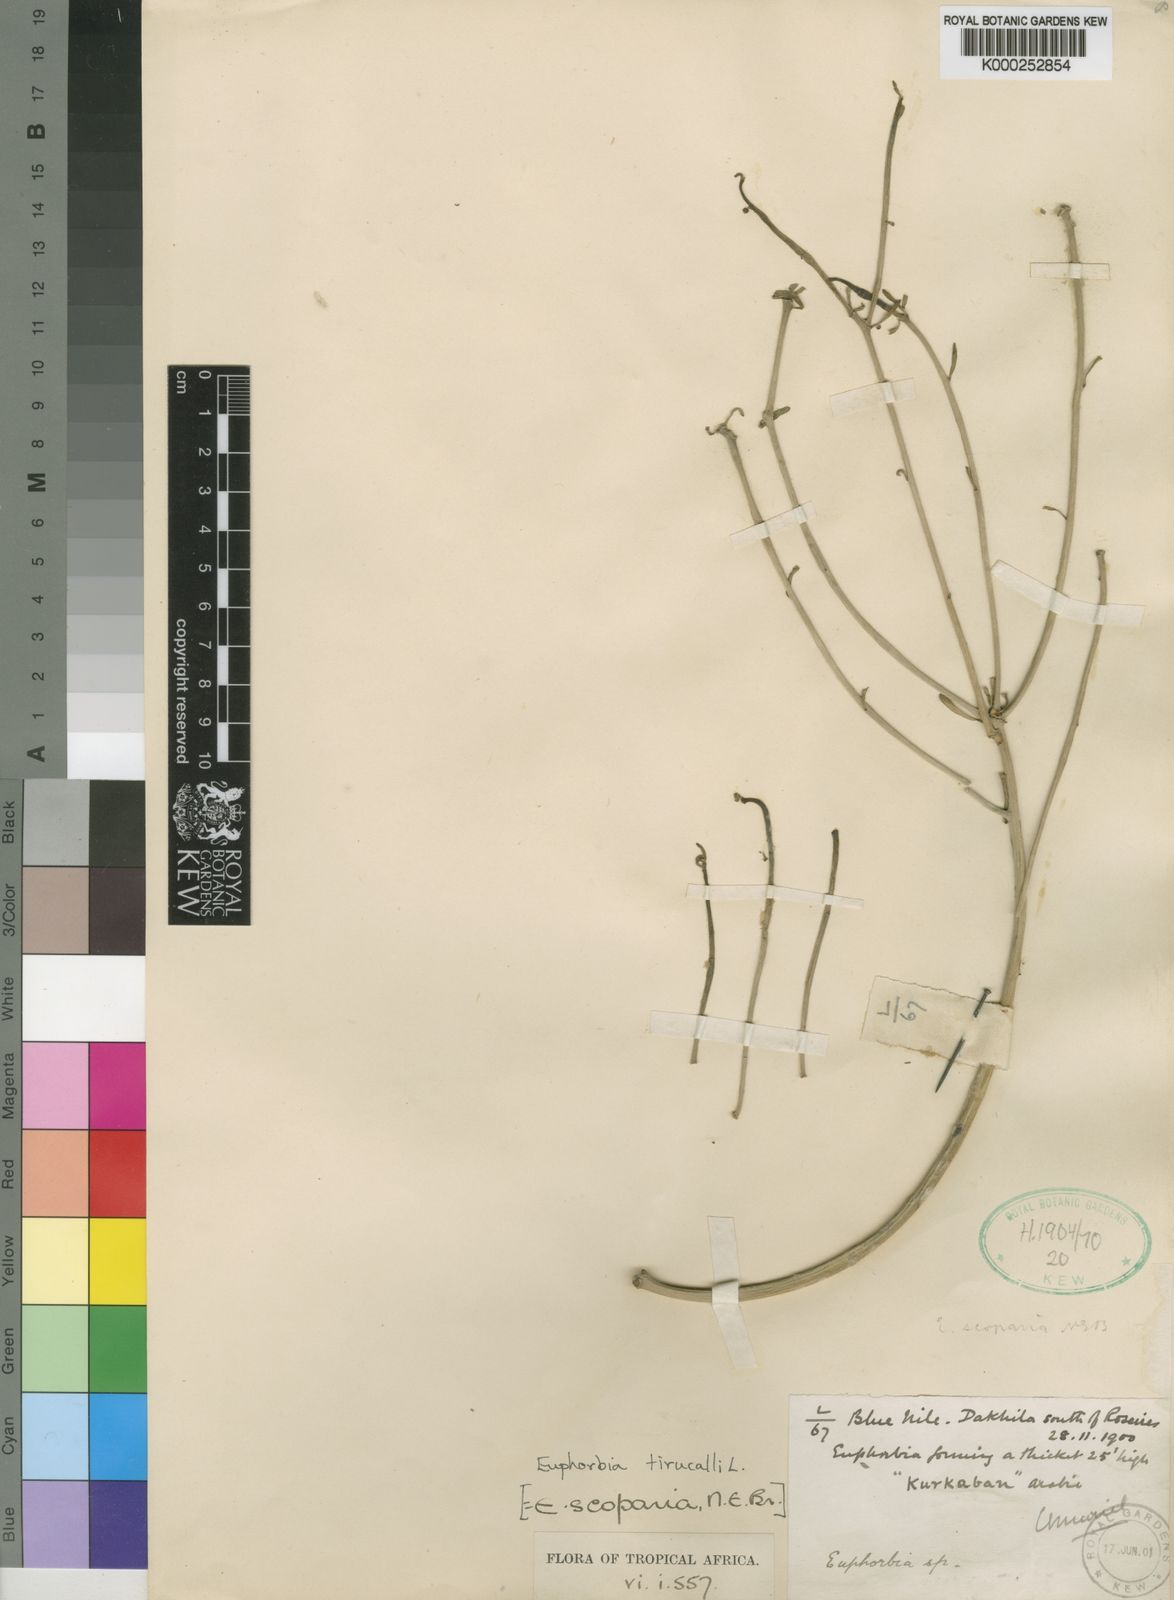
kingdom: Plantae
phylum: Tracheophyta
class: Magnoliopsida
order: Malpighiales
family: Euphorbiaceae
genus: Euphorbia
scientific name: Euphorbia tirucalli
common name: Indiantree spurge
